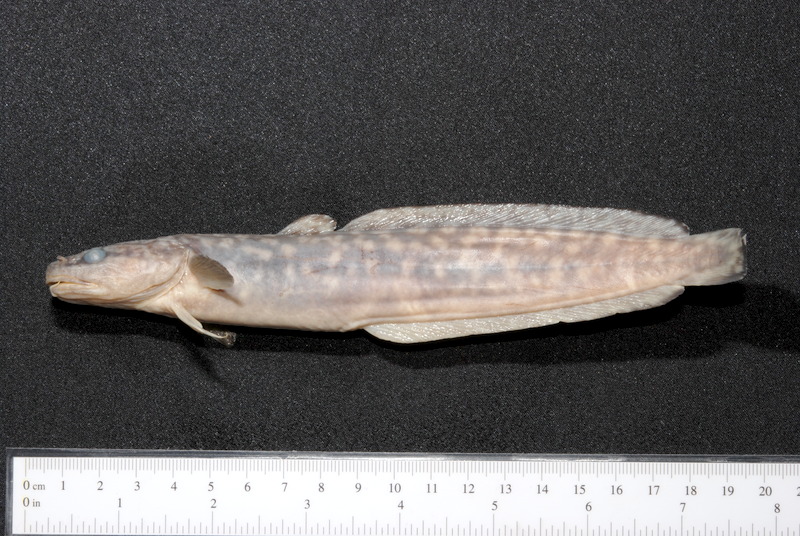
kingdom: Animalia
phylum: Chordata
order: Gadiformes
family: Lotidae
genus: Lota
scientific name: Lota lota
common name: Burbot
